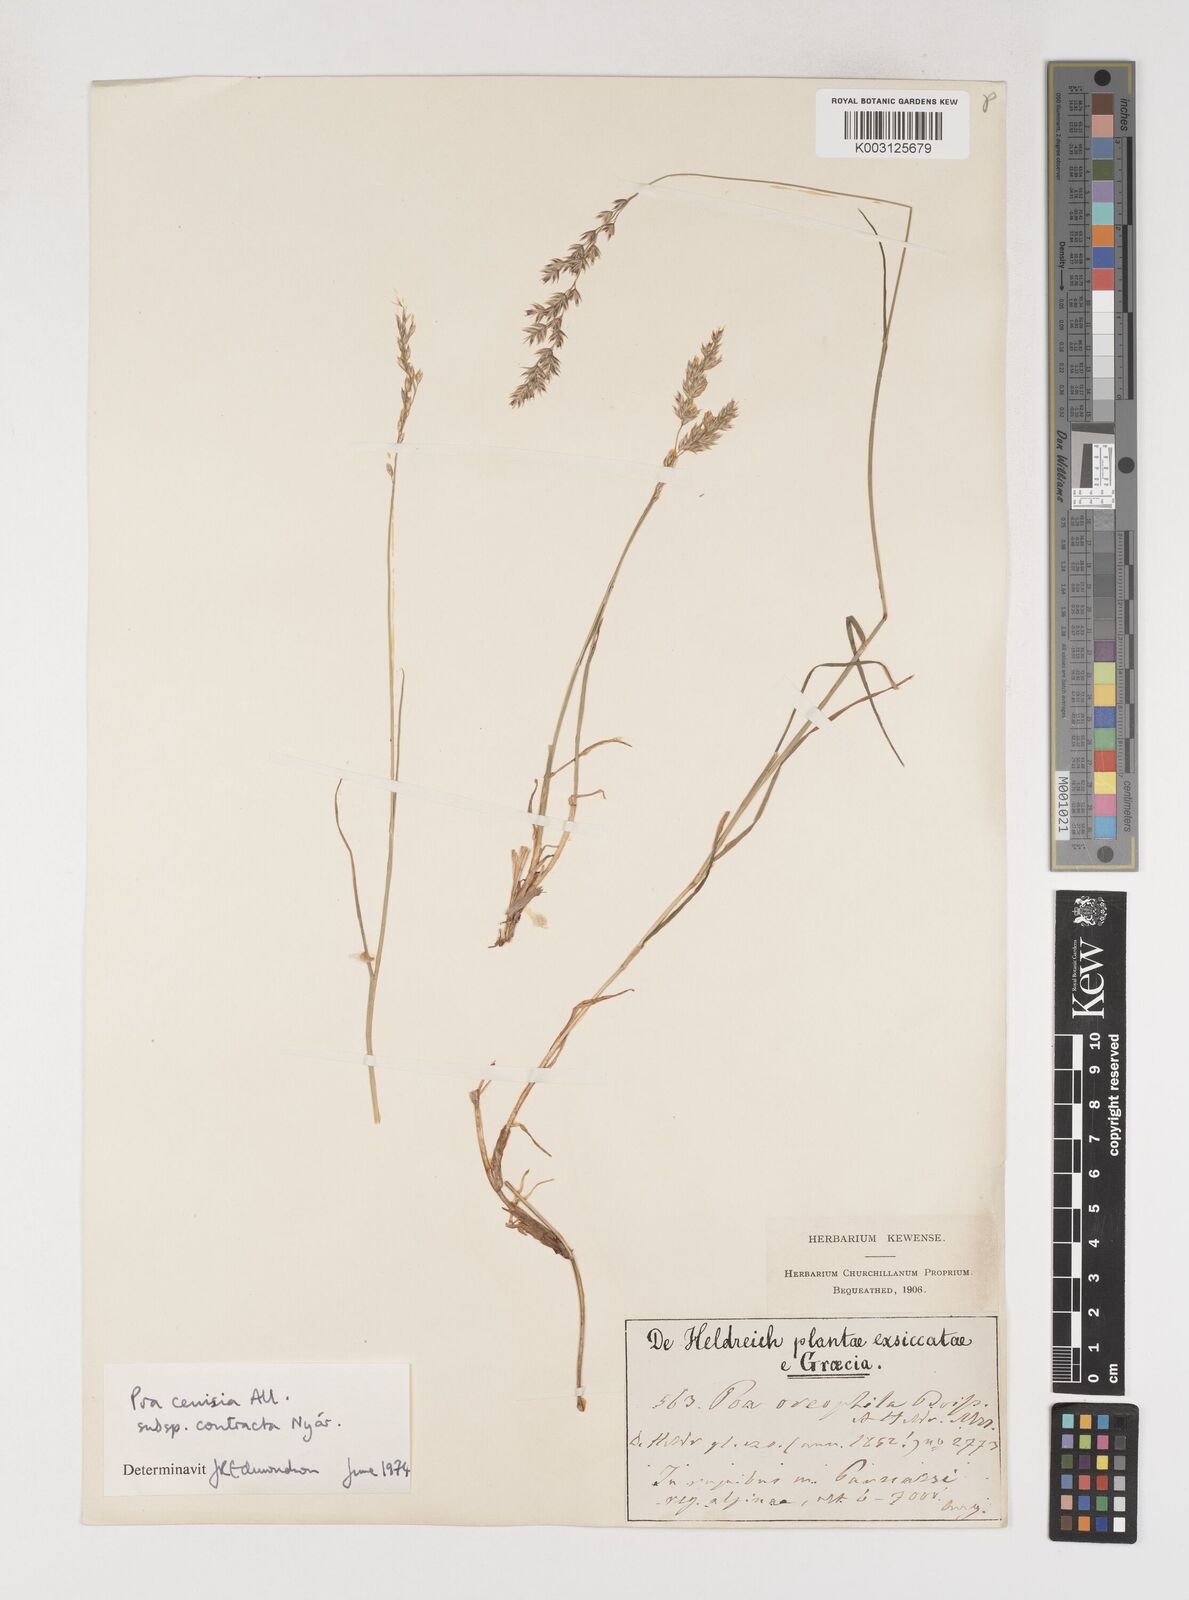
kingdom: Plantae
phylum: Tracheophyta
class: Liliopsida
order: Poales
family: Poaceae
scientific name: Poaceae
